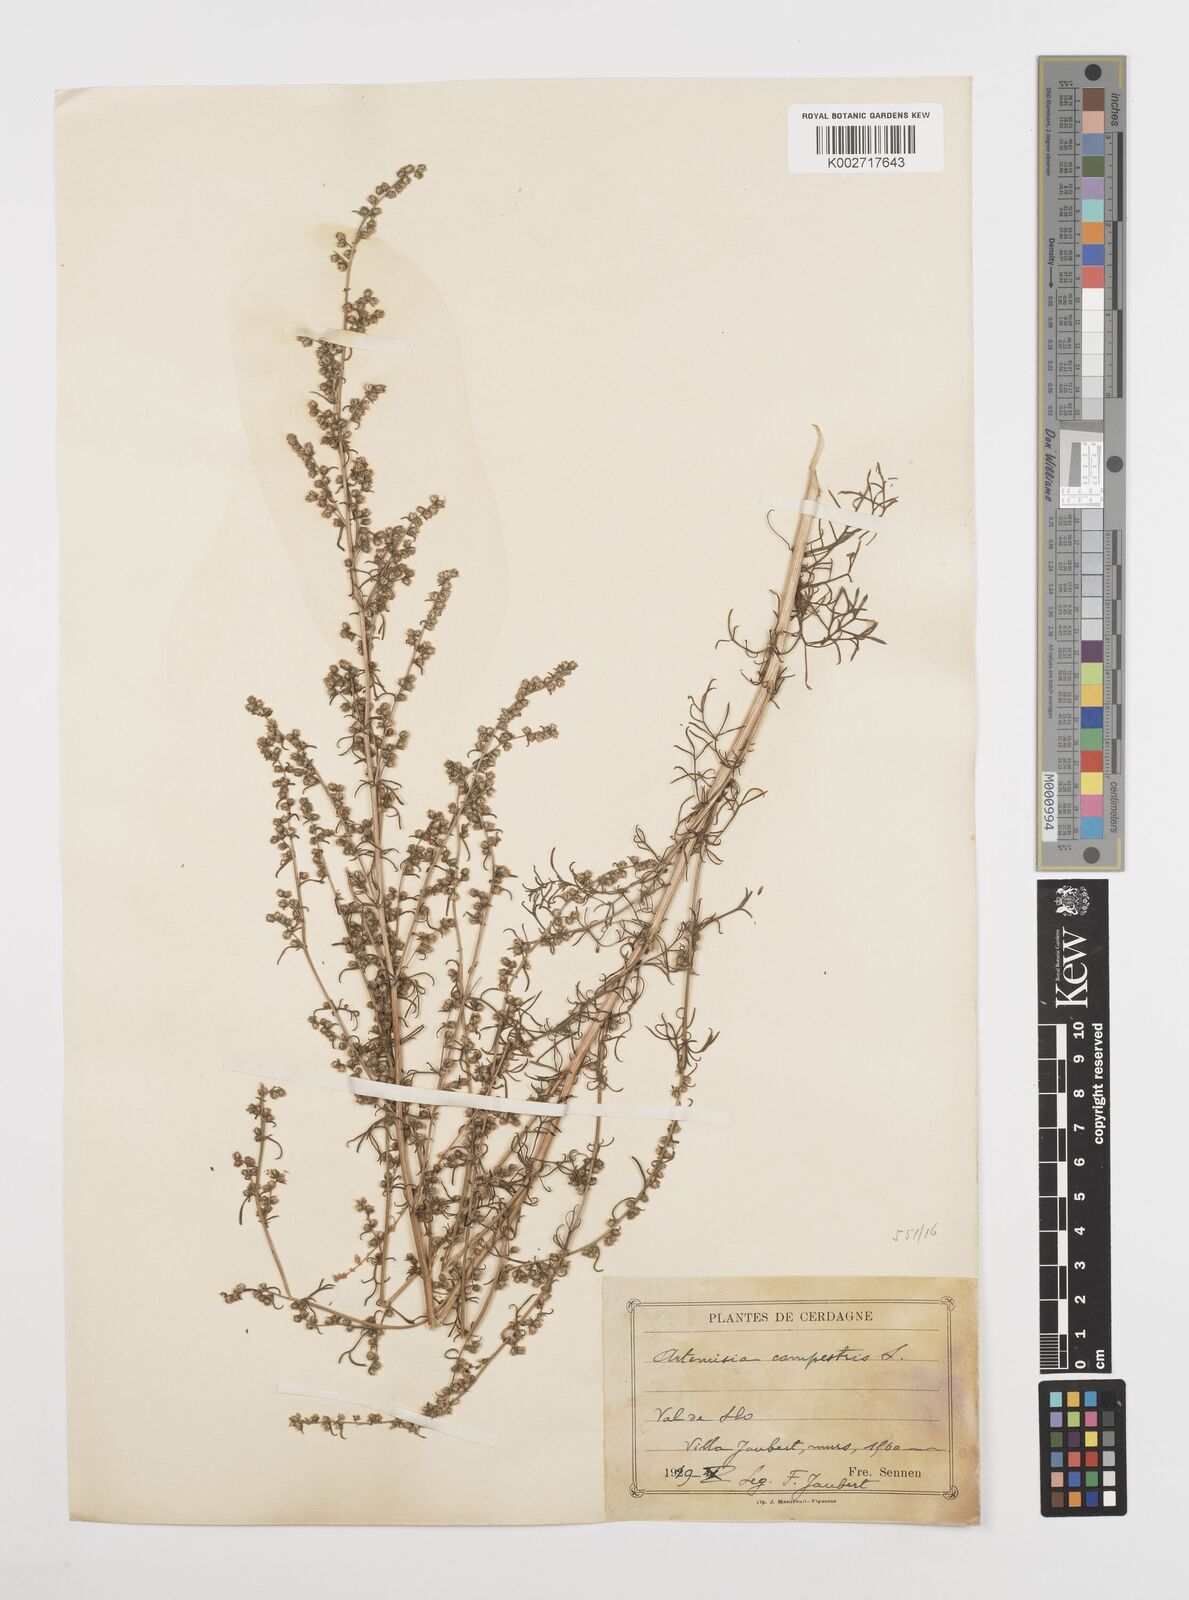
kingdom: Plantae
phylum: Tracheophyta
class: Magnoliopsida
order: Asterales
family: Asteraceae
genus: Artemisia
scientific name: Artemisia campestris
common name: Field wormwood
